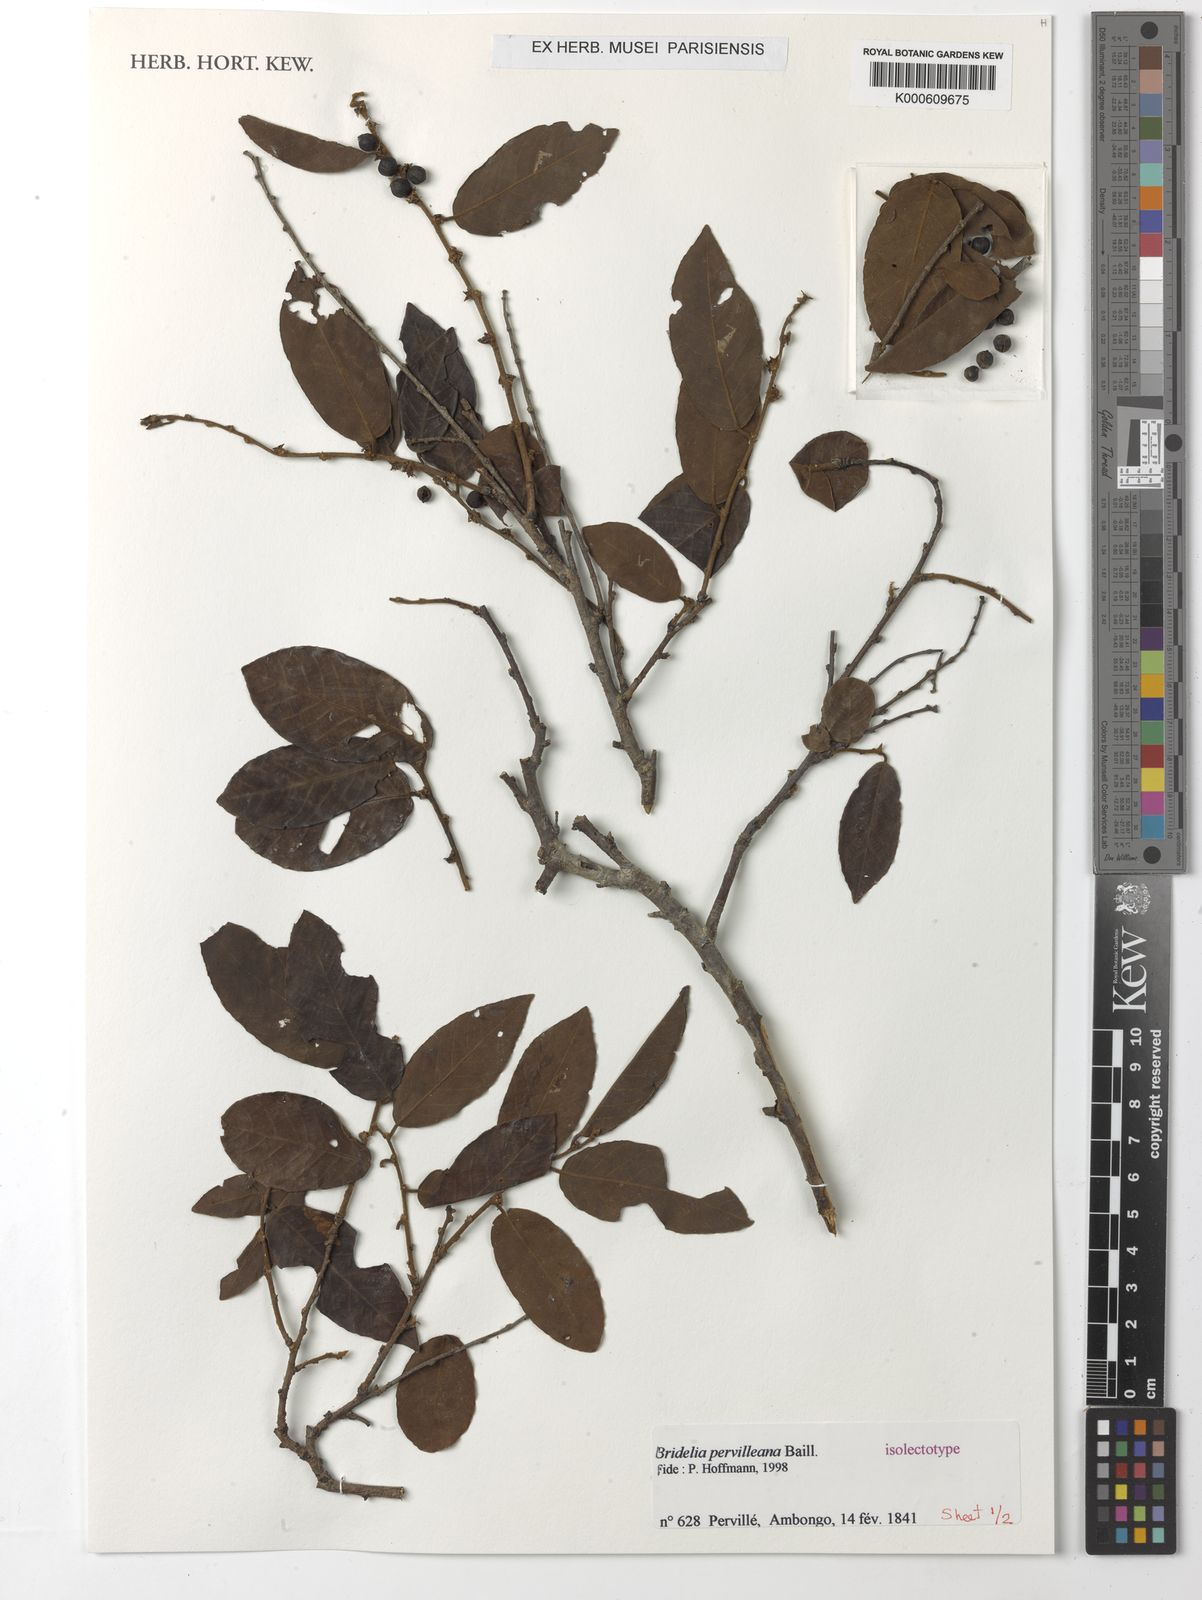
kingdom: Plantae
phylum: Tracheophyta
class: Magnoliopsida
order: Malpighiales
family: Phyllanthaceae
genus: Bridelia
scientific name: Bridelia pervilleana
